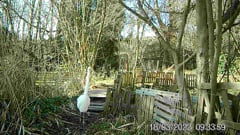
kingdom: Animalia
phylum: Chordata
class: Aves
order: Pelecaniformes
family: Ardeidae
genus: Ardea
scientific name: Ardea alba
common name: Great egret
